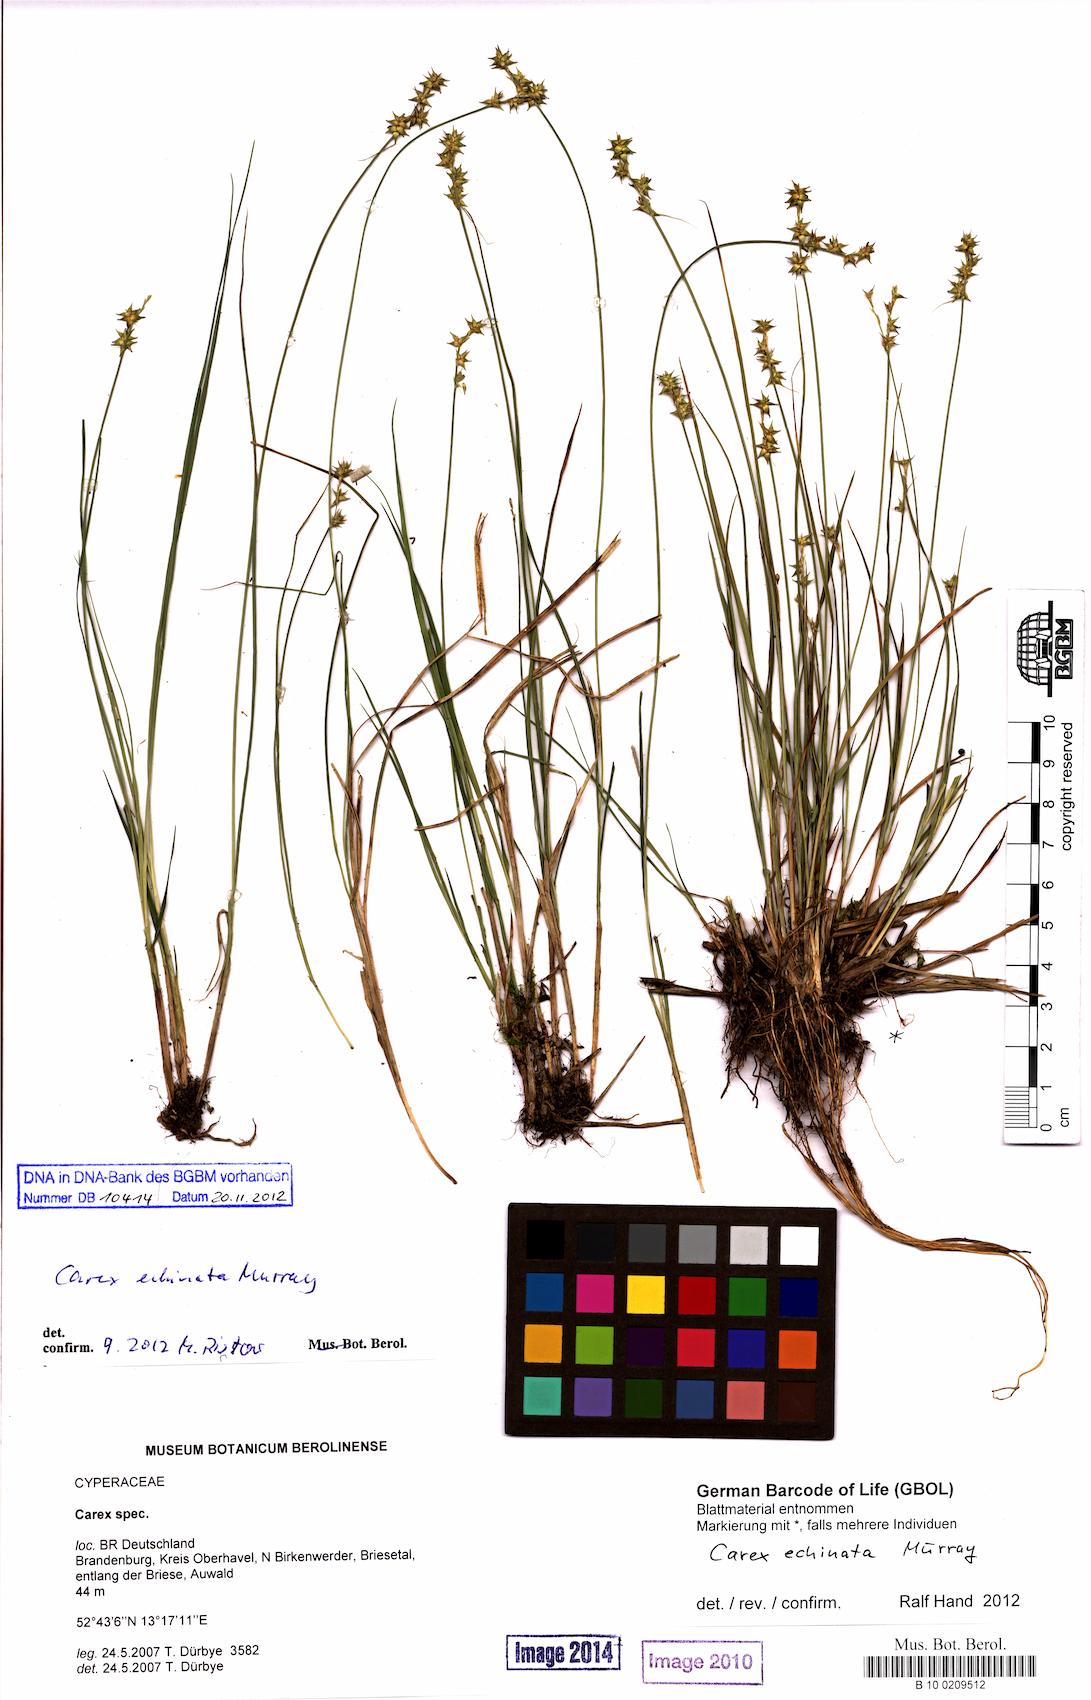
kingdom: Plantae
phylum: Tracheophyta
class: Liliopsida
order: Poales
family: Cyperaceae
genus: Carex
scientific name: Carex echinata
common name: Star sedge
